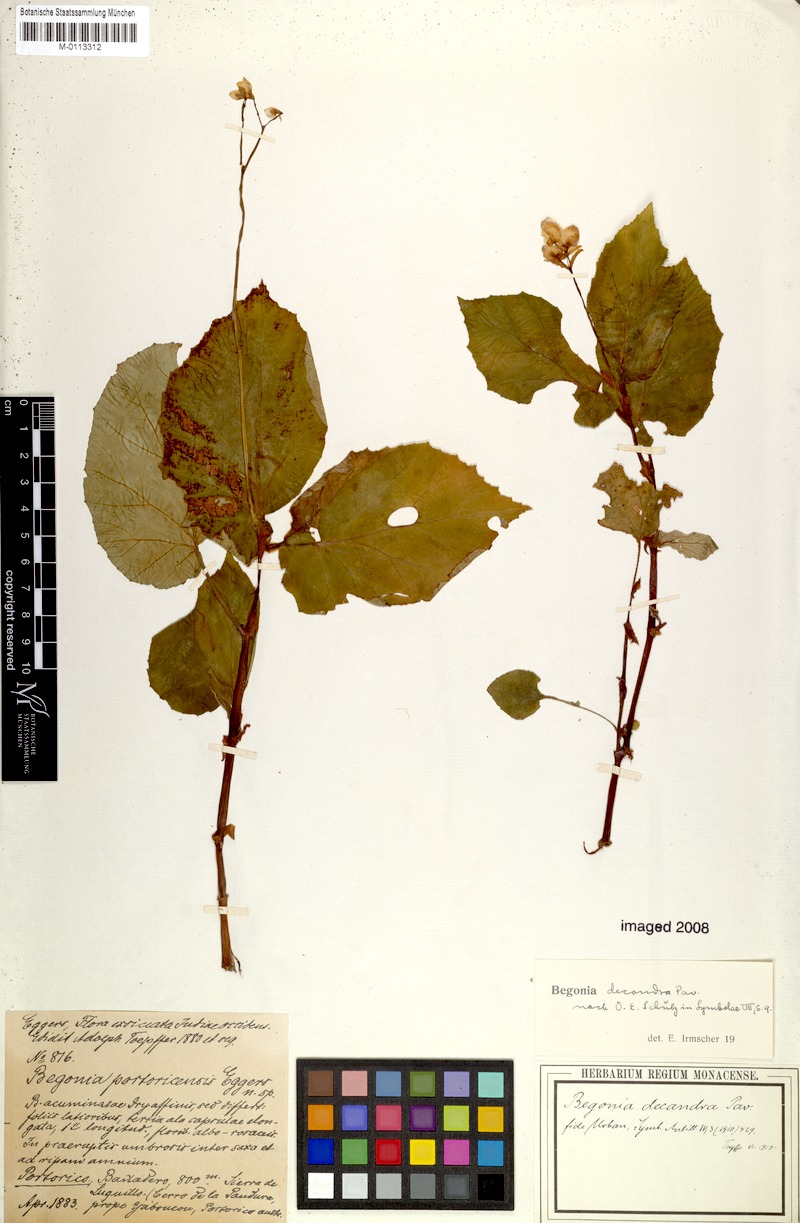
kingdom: Plantae
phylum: Tracheophyta
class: Magnoliopsida
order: Cucurbitales
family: Begoniaceae
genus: Begonia
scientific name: Begonia decandra
